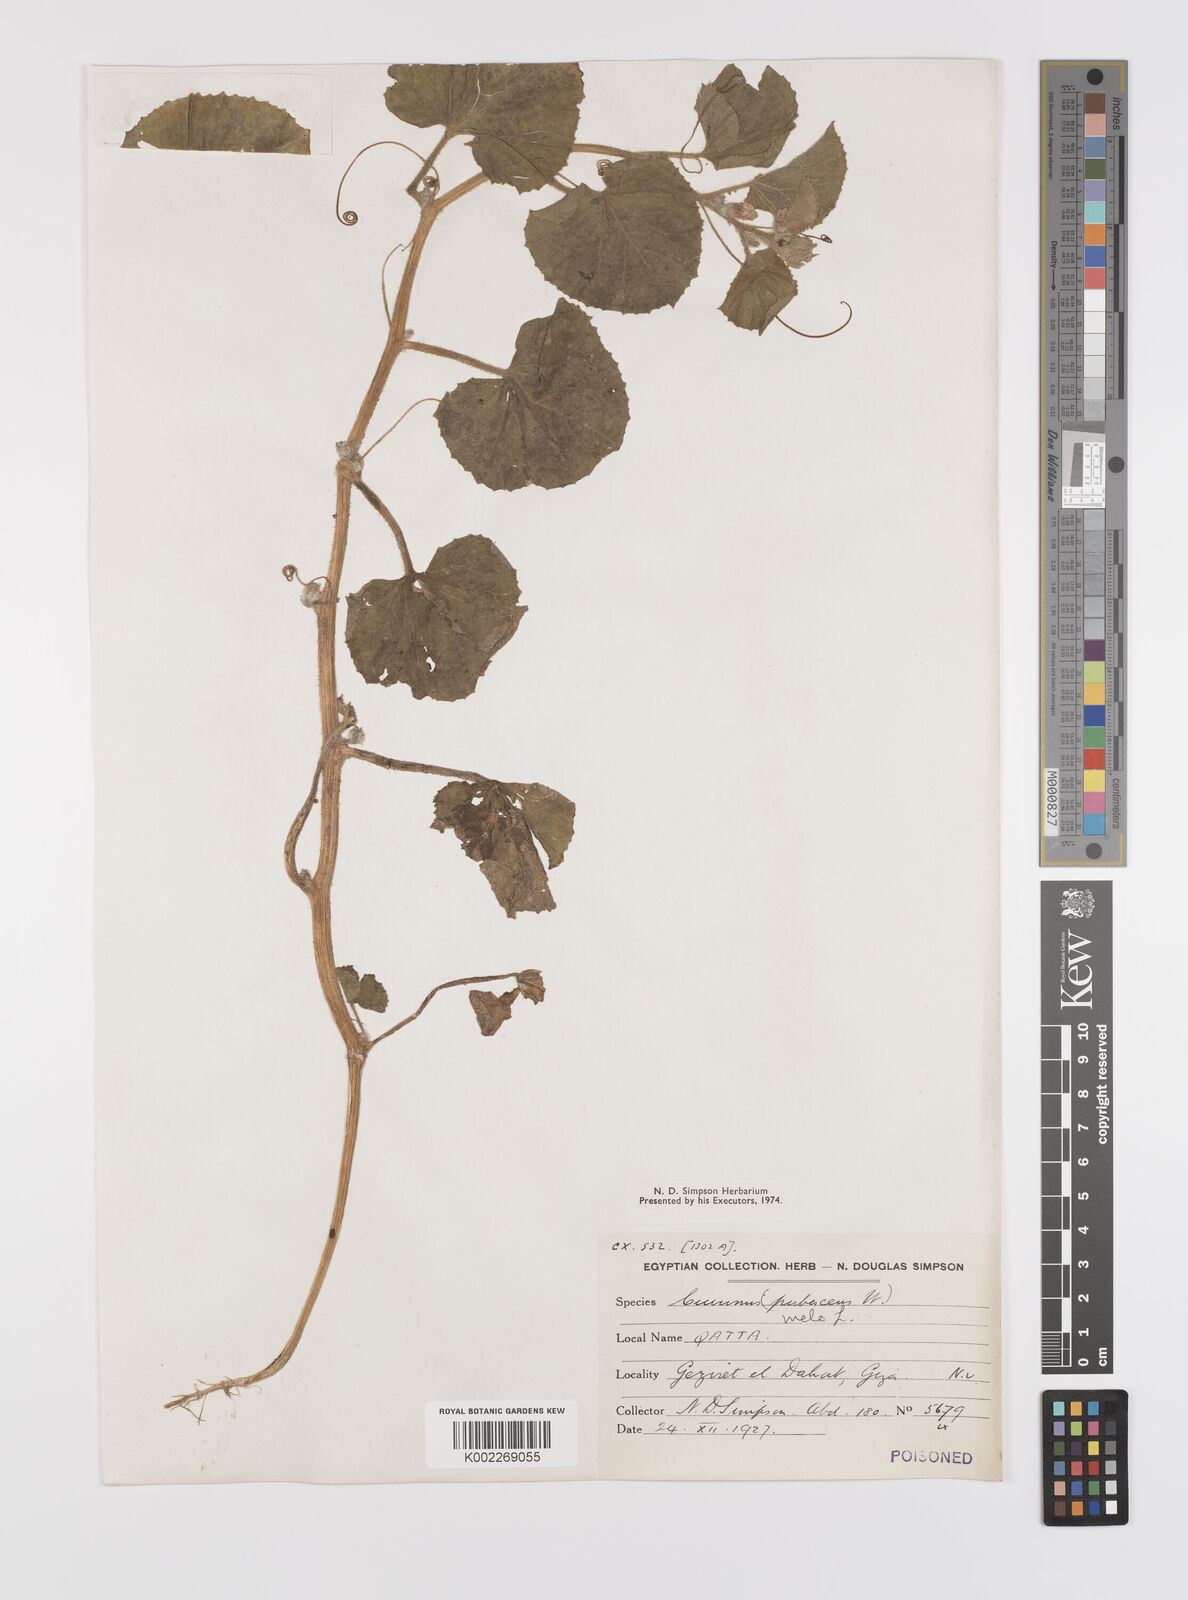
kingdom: Plantae
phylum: Tracheophyta
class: Magnoliopsida
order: Cucurbitales
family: Cucurbitaceae
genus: Cucumis
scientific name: Cucumis melo
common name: Melon
